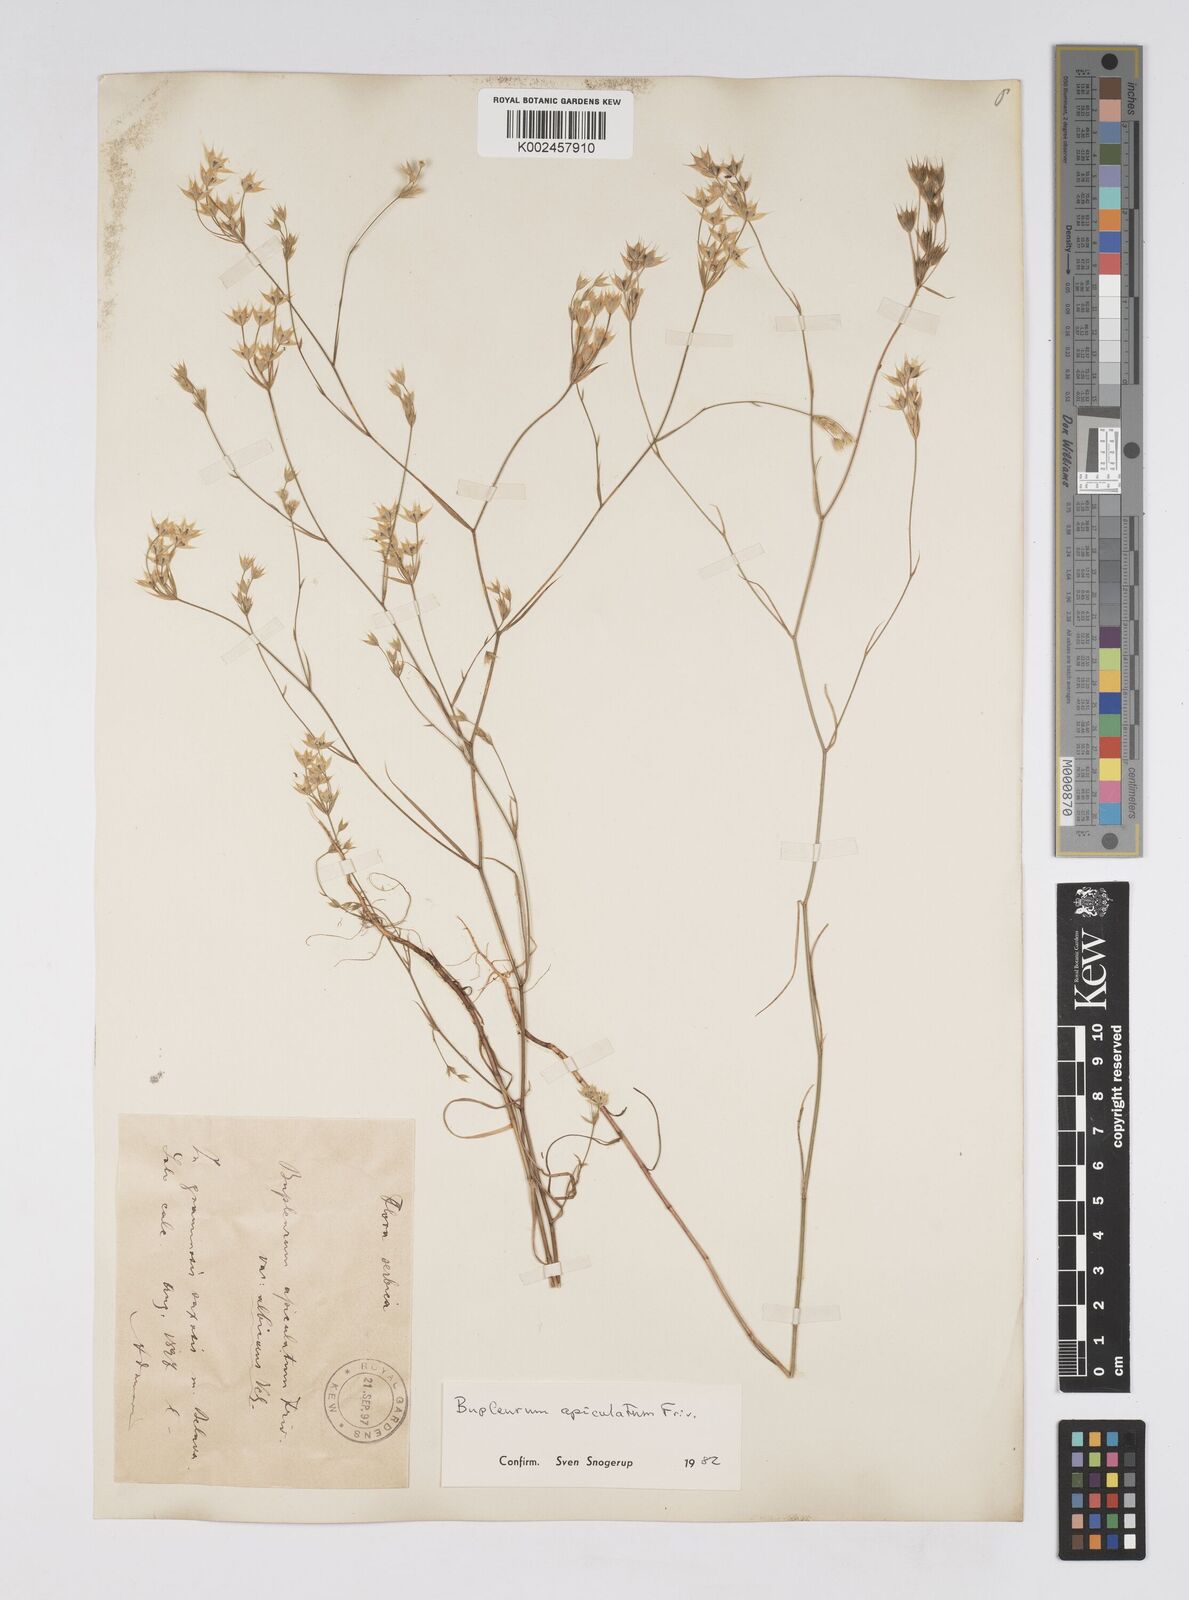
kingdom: Plantae
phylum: Tracheophyta
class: Magnoliopsida
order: Apiales
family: Apiaceae
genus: Bupleurum
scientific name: Bupleurum apiculatum
